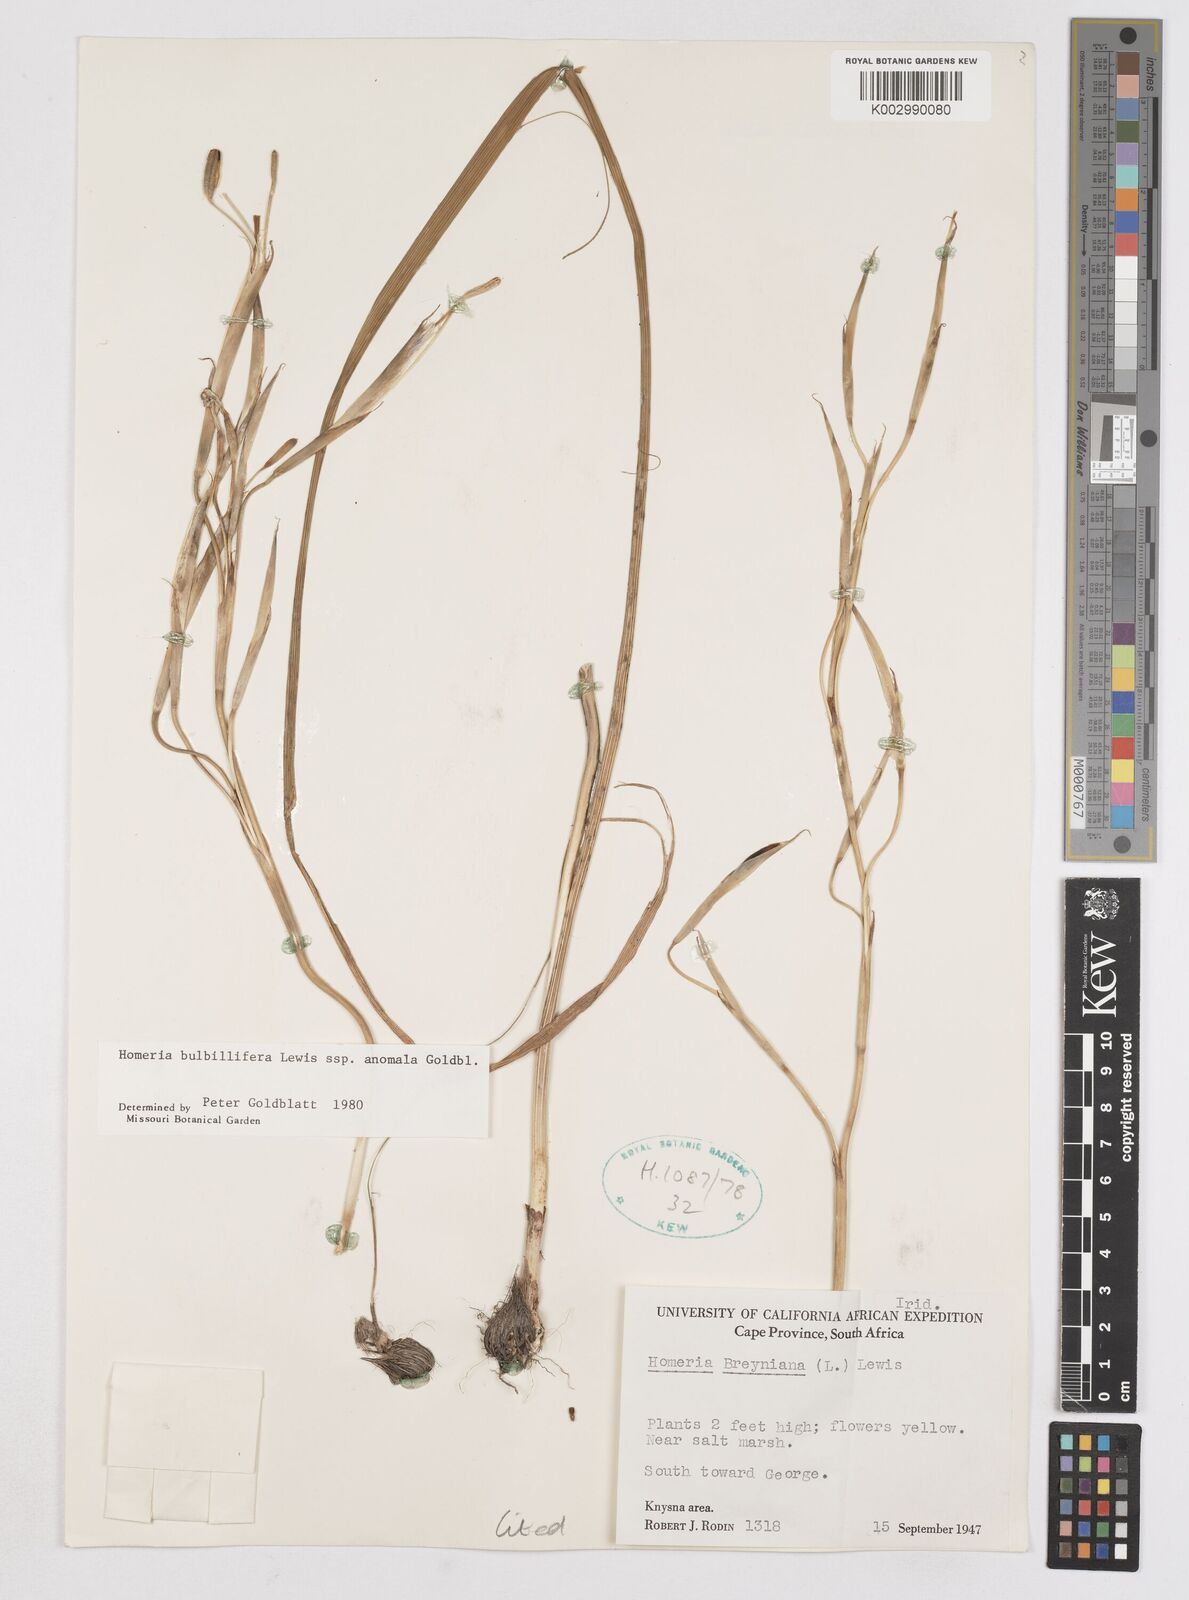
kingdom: Plantae
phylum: Tracheophyta
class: Liliopsida
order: Asparagales
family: Iridaceae
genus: Moraea
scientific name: Moraea bulbillifera
